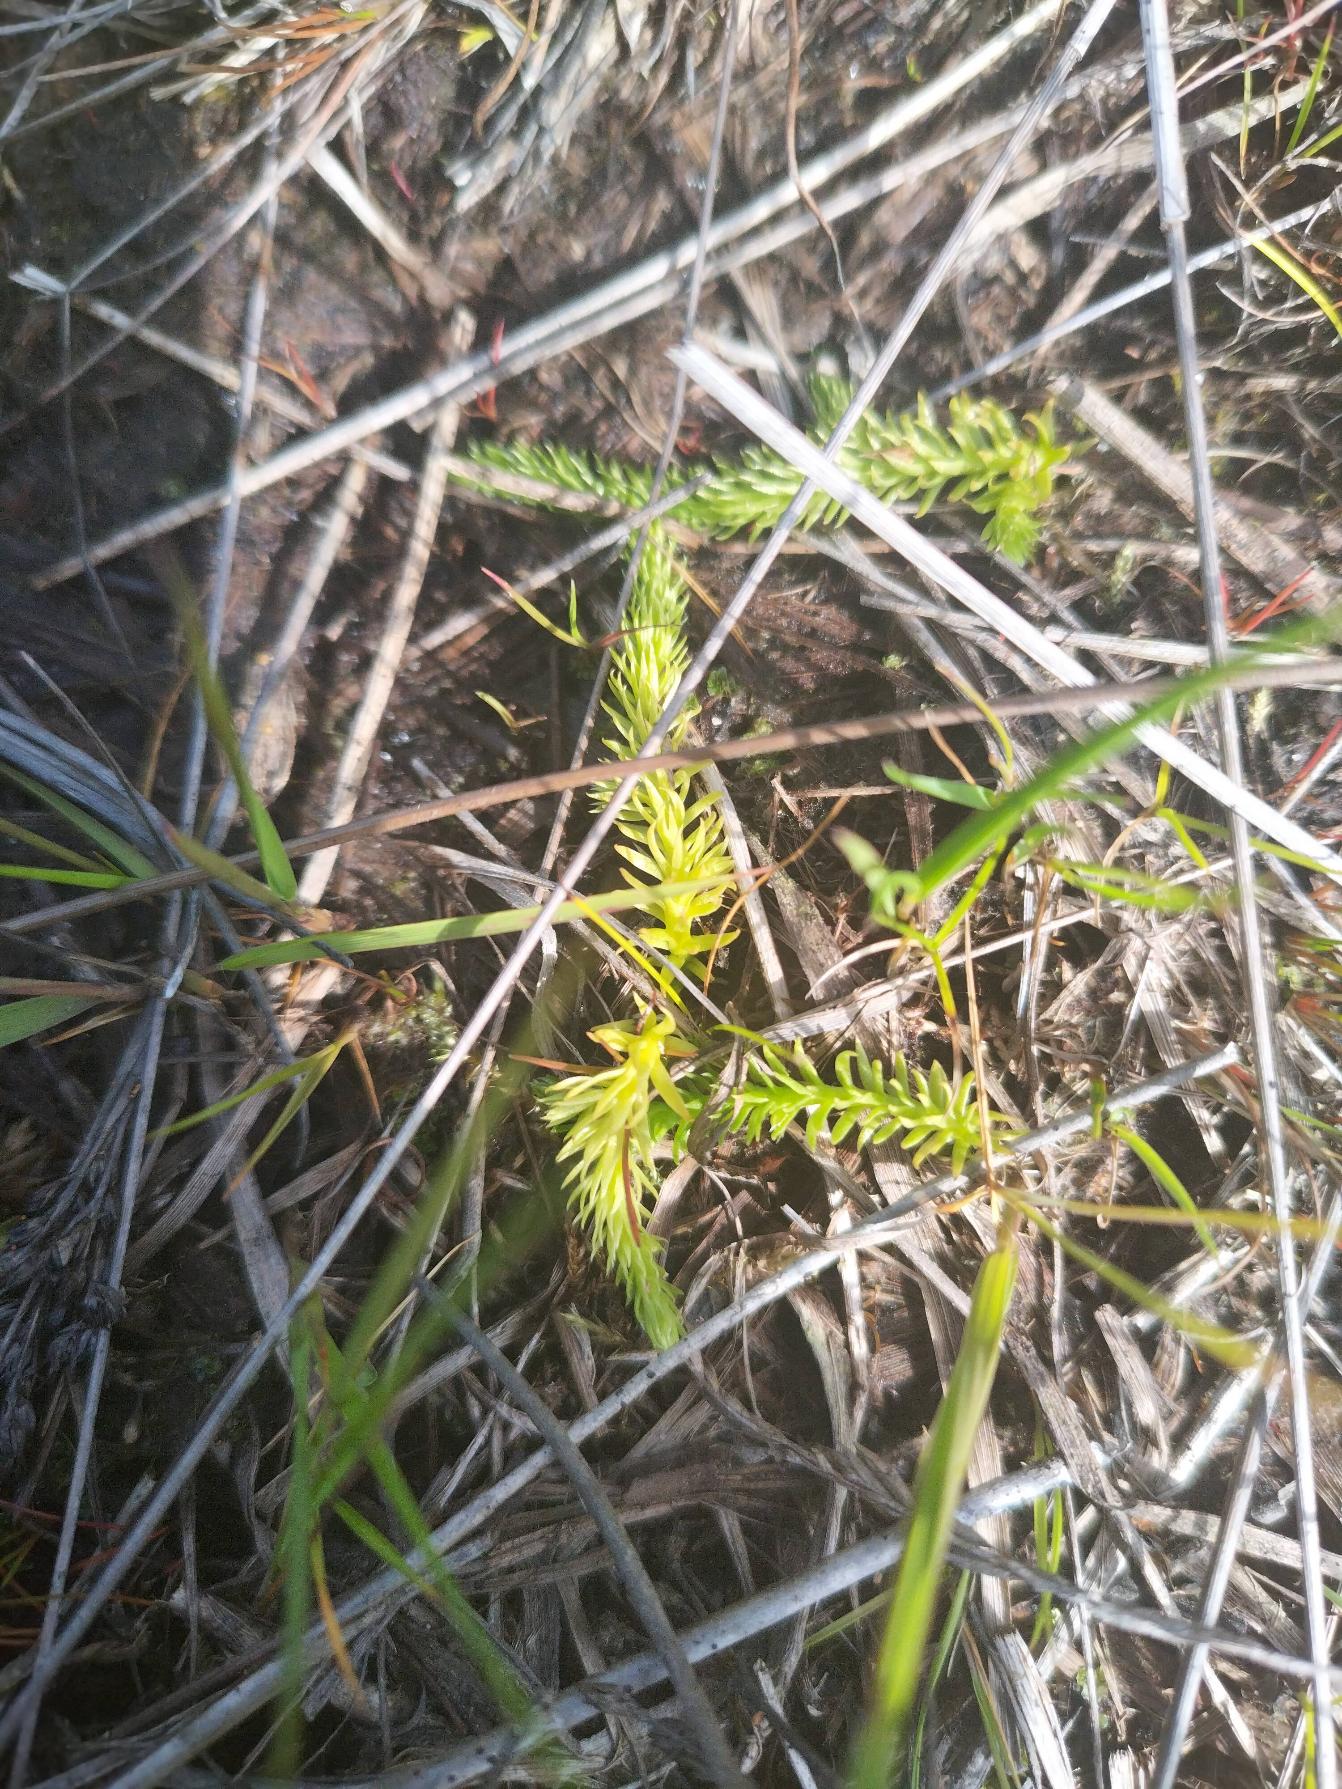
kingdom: Plantae
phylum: Tracheophyta
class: Lycopodiopsida
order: Lycopodiales
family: Lycopodiaceae
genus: Lycopodiella
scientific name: Lycopodiella inundata
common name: Liden ulvefod
